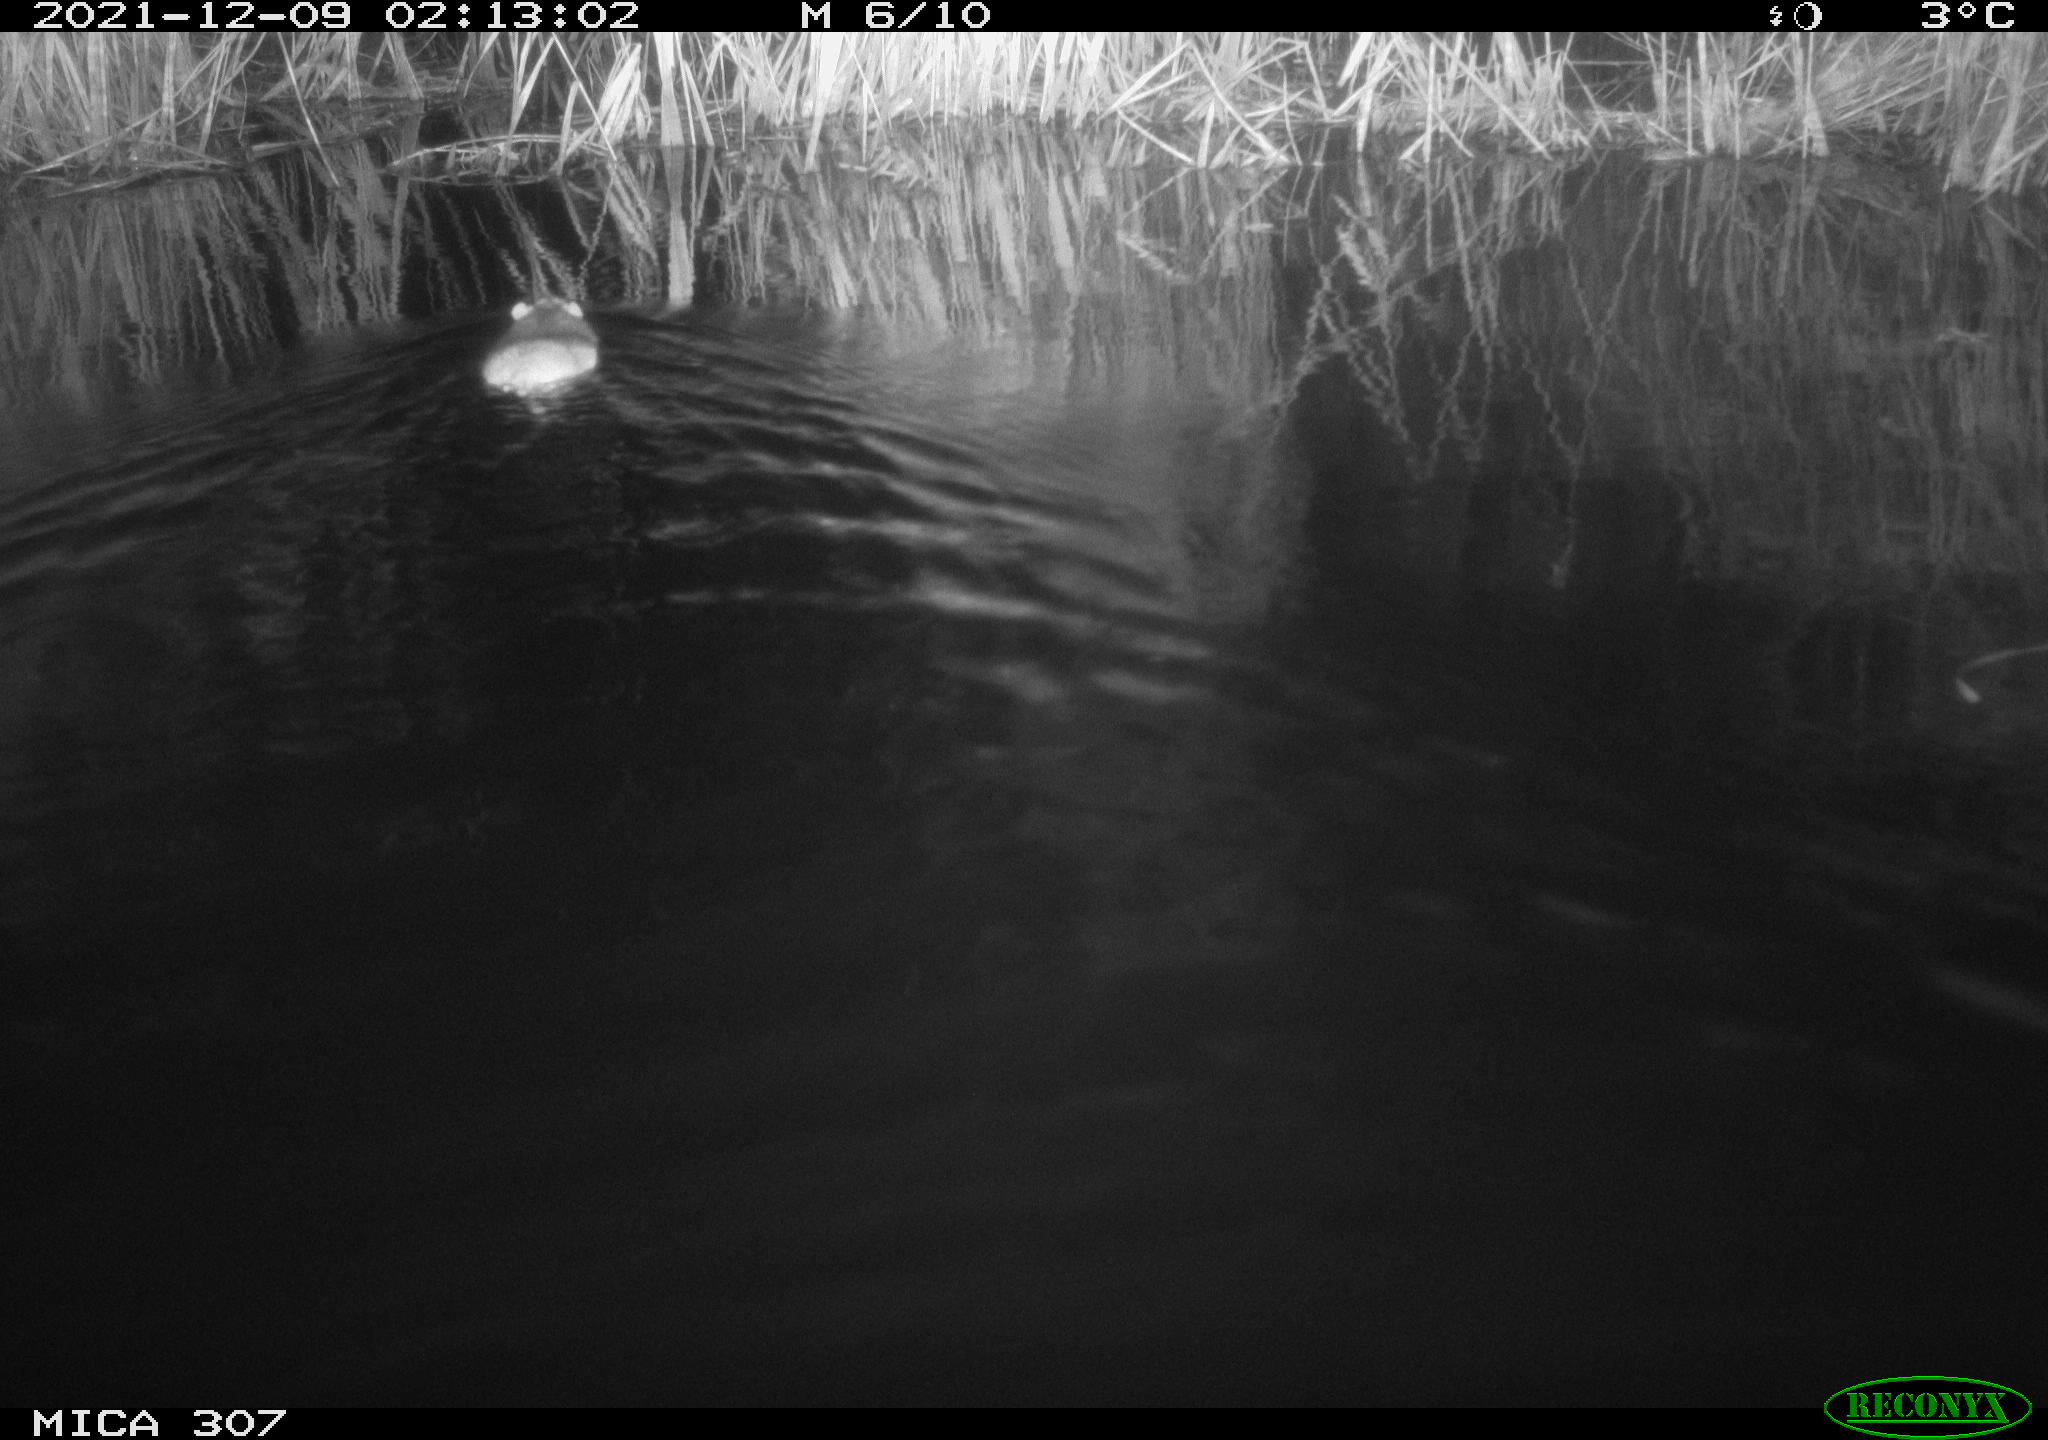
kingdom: Animalia
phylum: Chordata
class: Mammalia
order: Rodentia
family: Muridae
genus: Rattus
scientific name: Rattus norvegicus
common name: Brown rat
